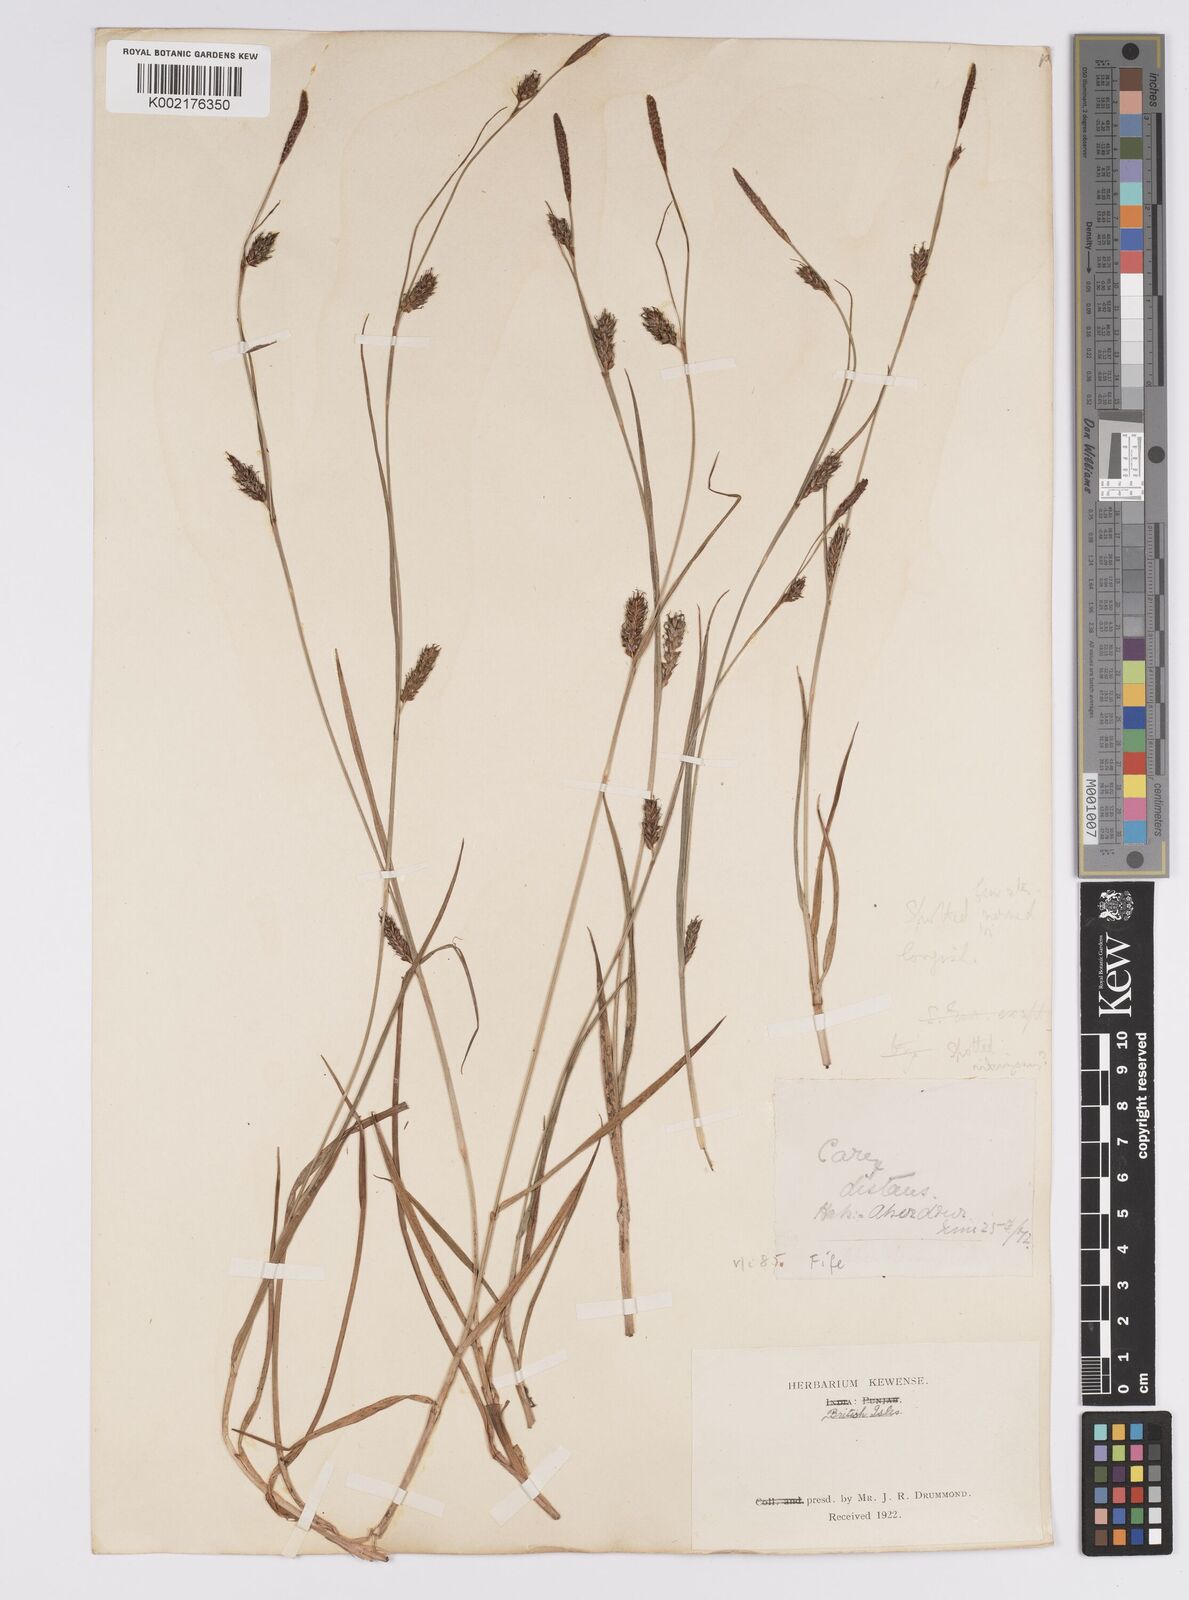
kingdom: Plantae
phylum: Tracheophyta
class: Liliopsida
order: Poales
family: Cyperaceae
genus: Carex
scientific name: Carex distans
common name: Distant sedge
